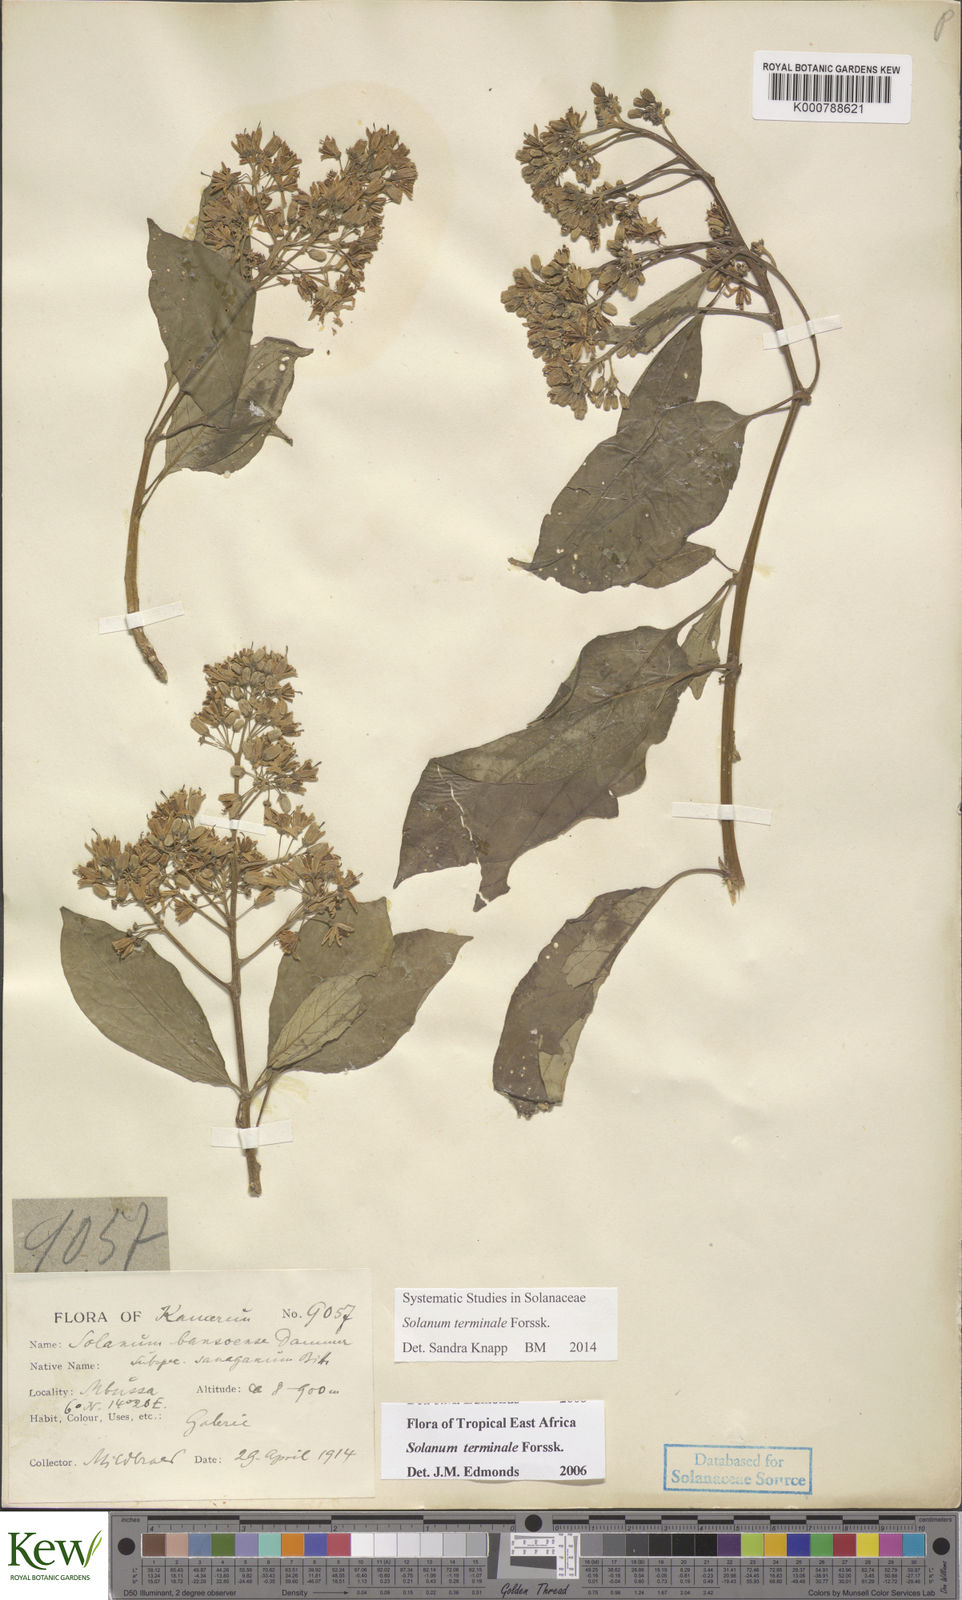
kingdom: Plantae
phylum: Tracheophyta
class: Magnoliopsida
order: Solanales
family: Solanaceae
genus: Solanum
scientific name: Solanum terminale
